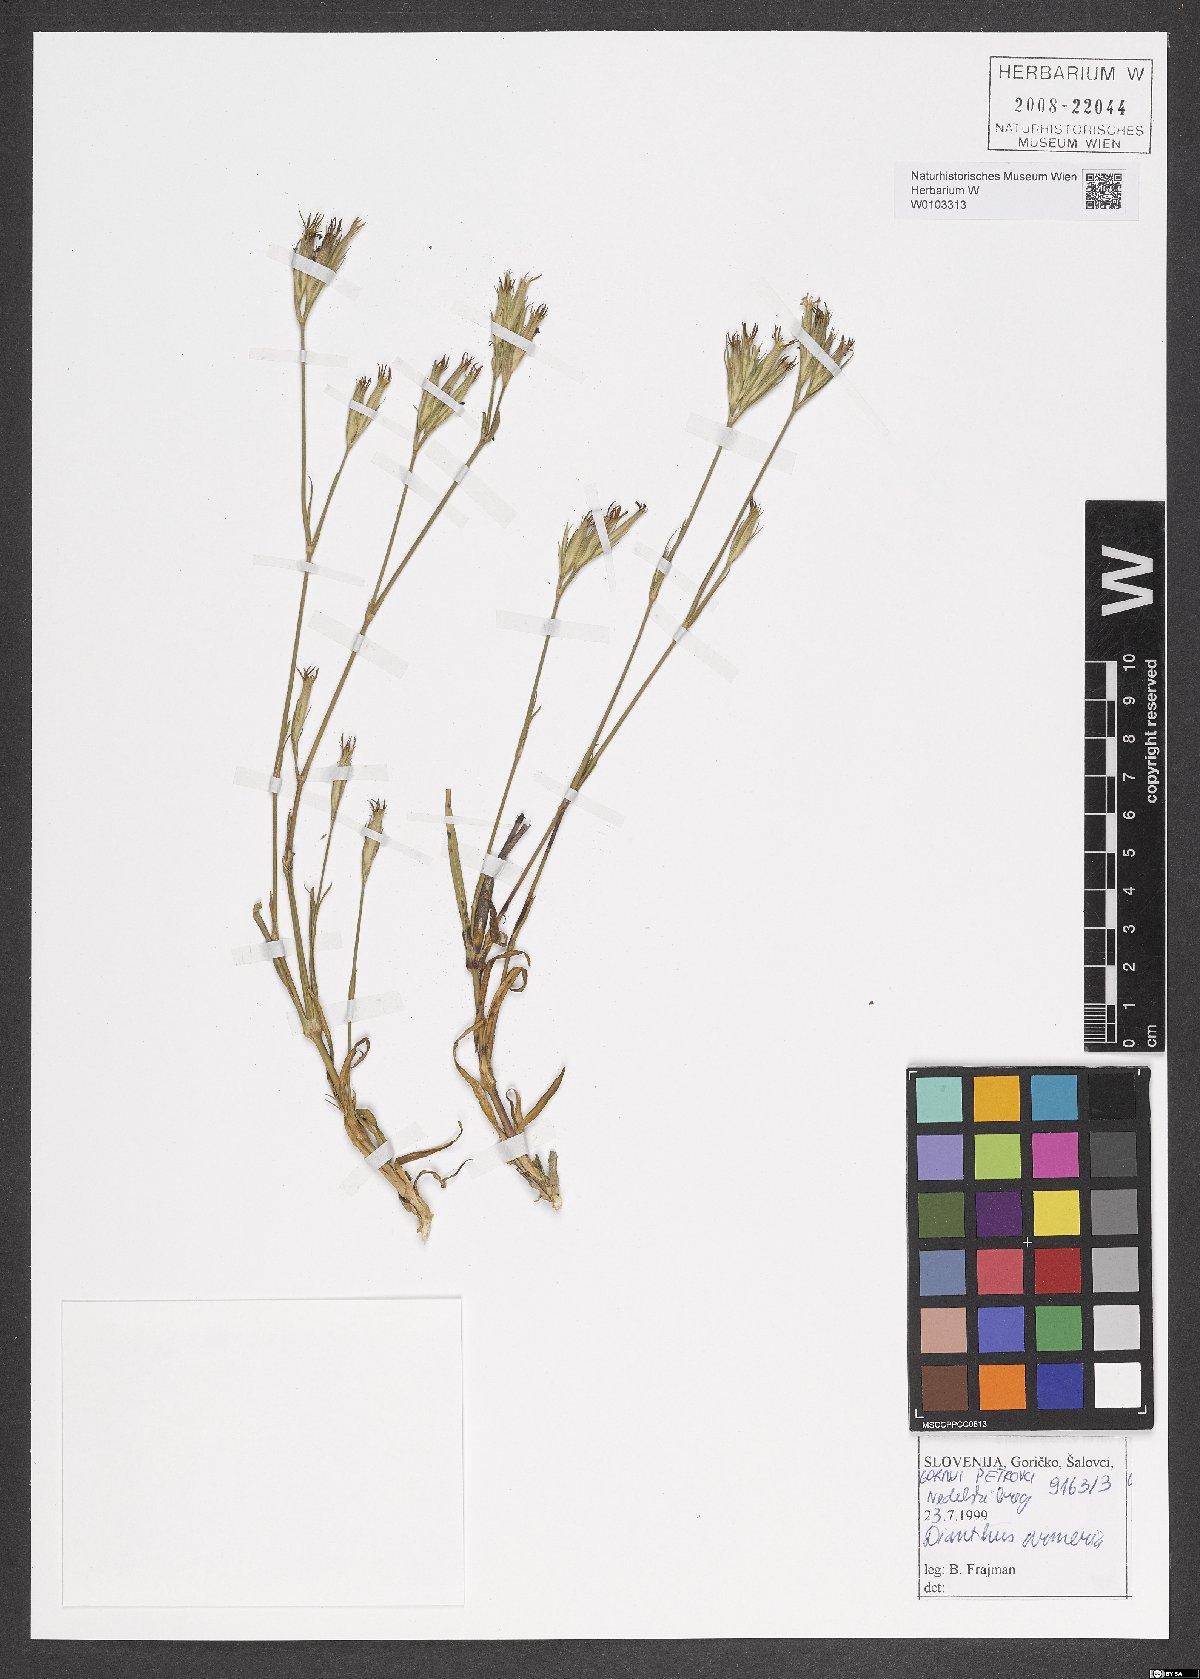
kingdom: Plantae
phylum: Tracheophyta
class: Magnoliopsida
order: Caryophyllales
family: Caryophyllaceae
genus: Dianthus
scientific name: Dianthus armeria
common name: Deptford pink
